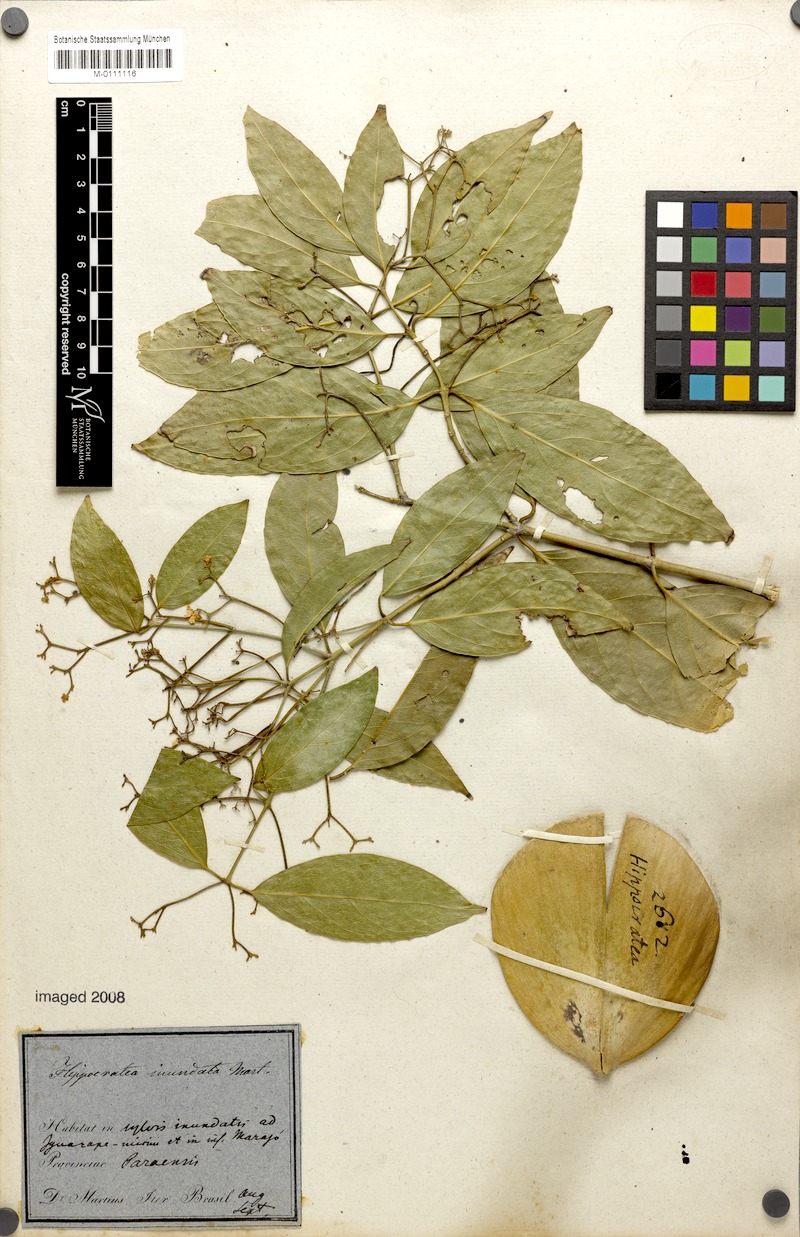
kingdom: Plantae
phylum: Tracheophyta
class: Magnoliopsida
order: Celastrales
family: Celastraceae
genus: Cuervea
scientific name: Cuervea kappleriana
